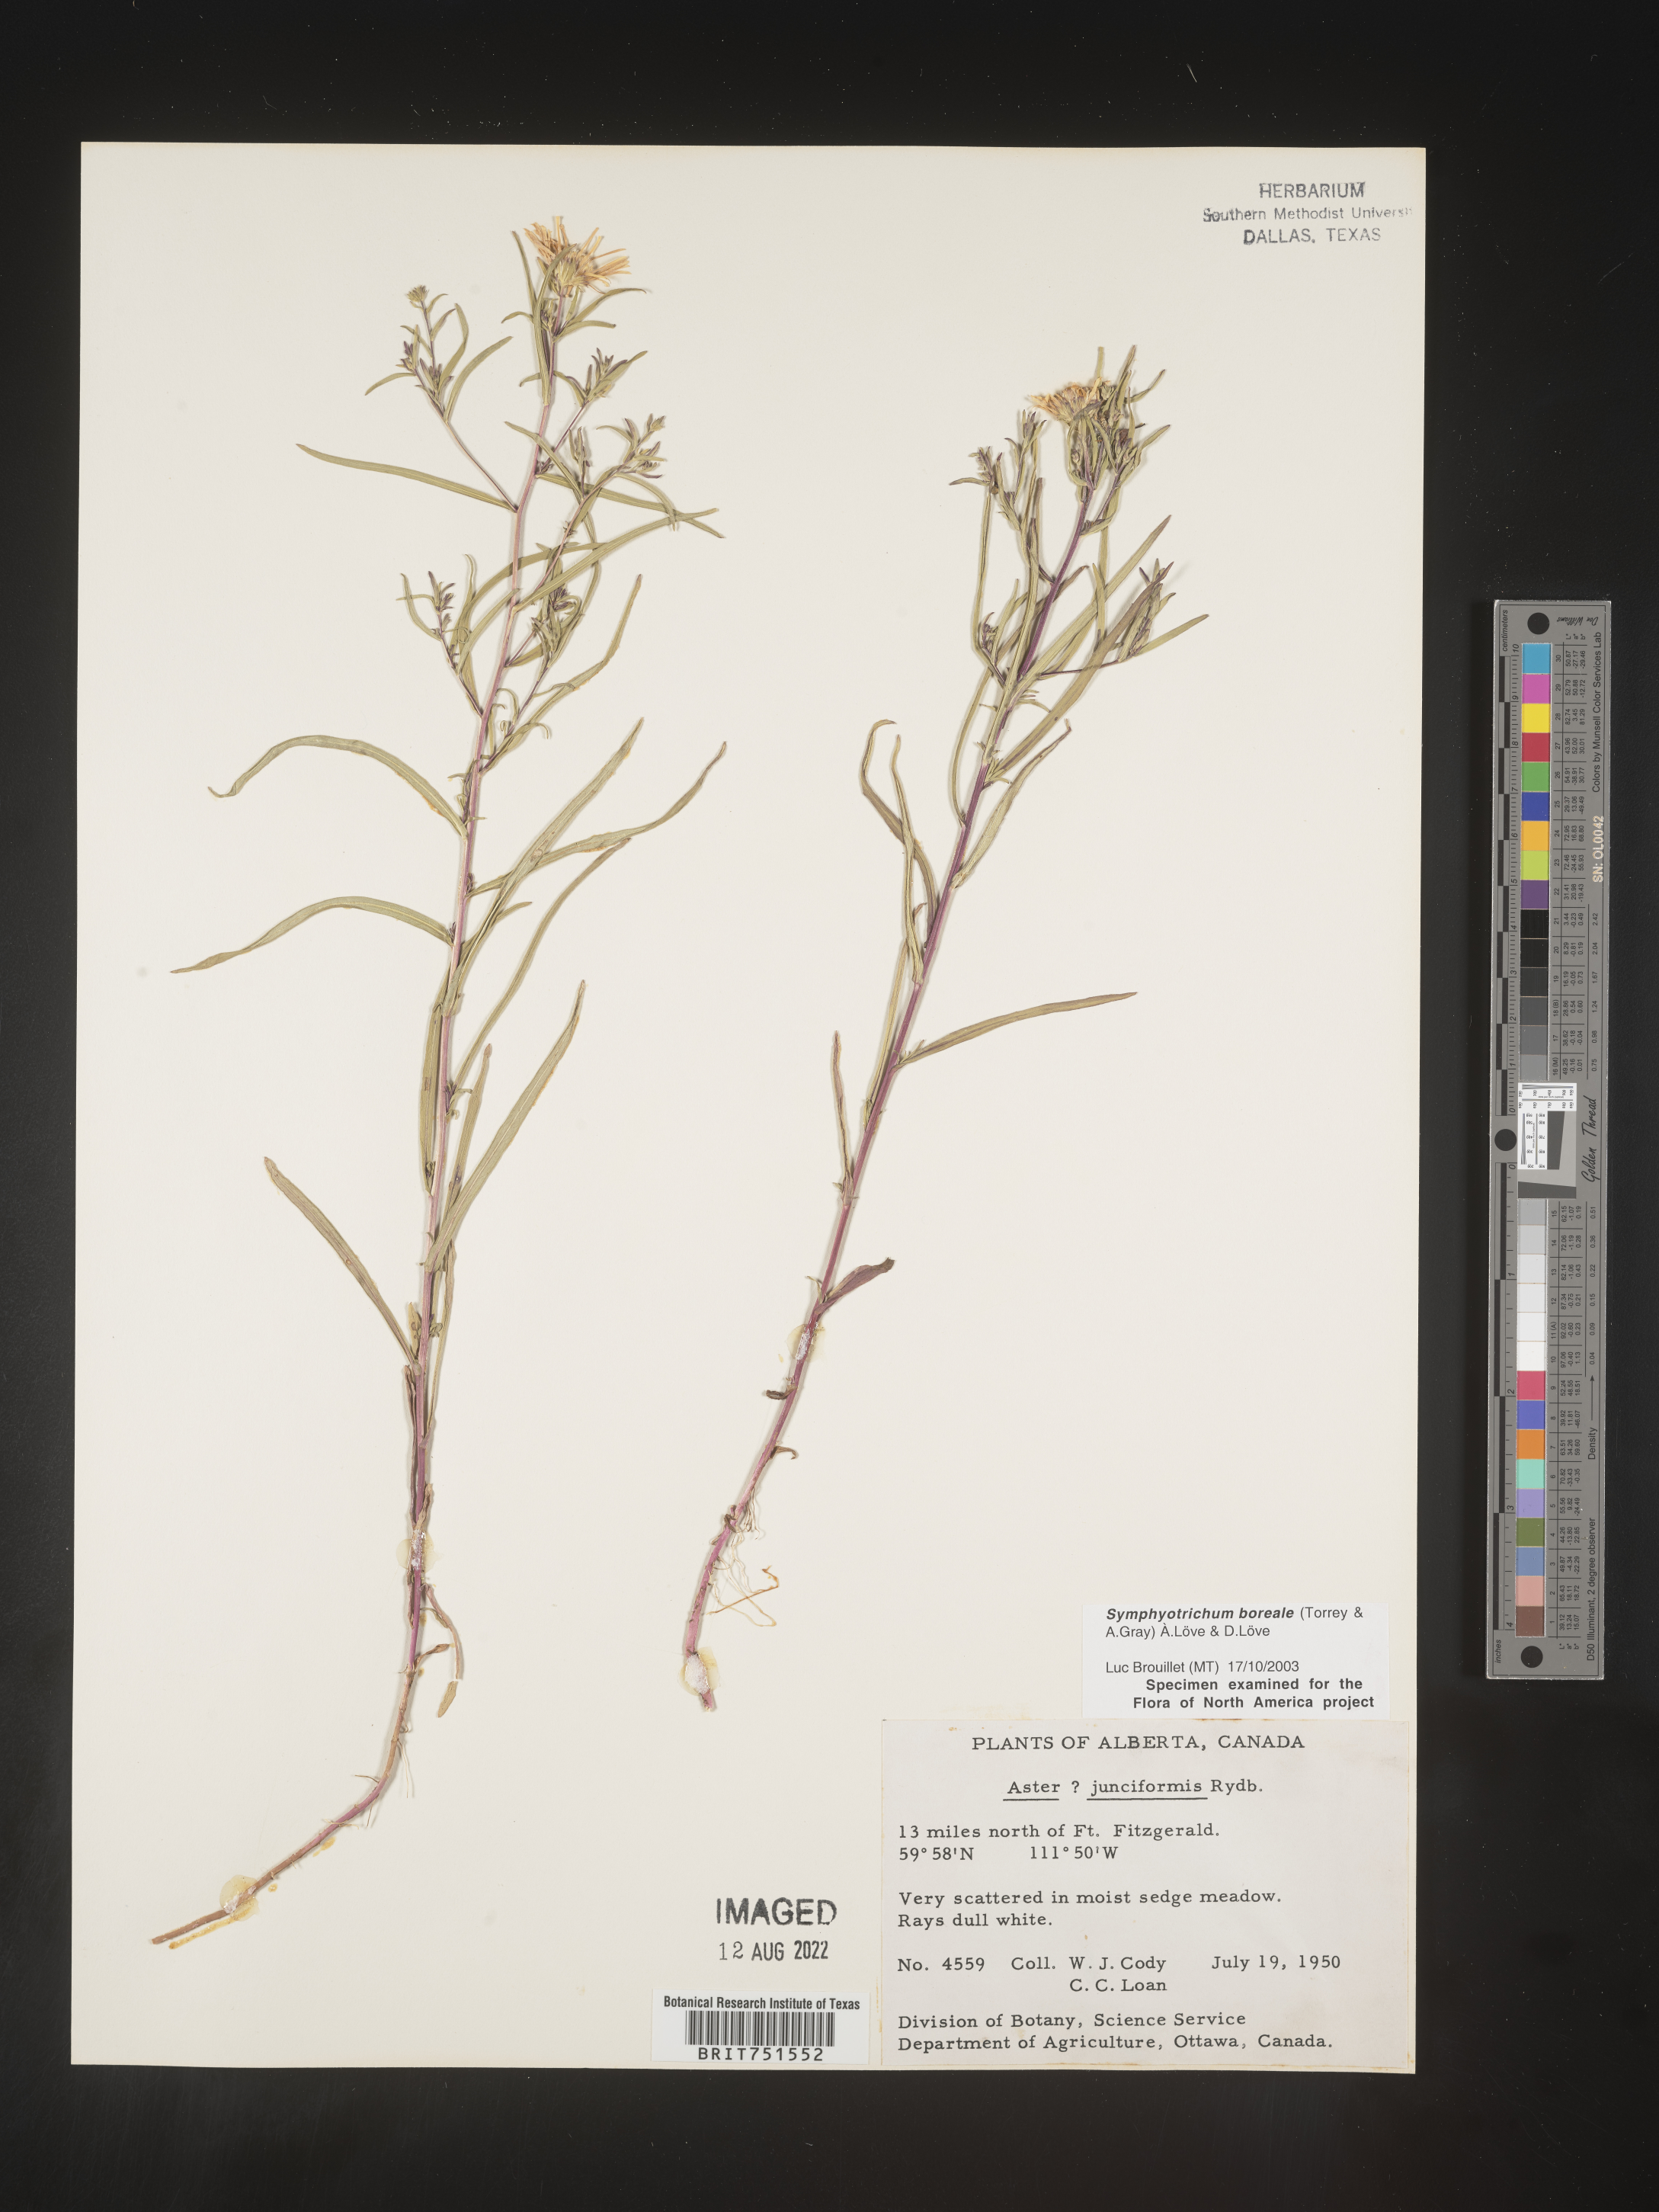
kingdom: Plantae
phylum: Tracheophyta
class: Magnoliopsida
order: Asterales
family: Asteraceae
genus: Symphyotrichum
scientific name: Symphyotrichum boreale
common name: Northern bog aster
